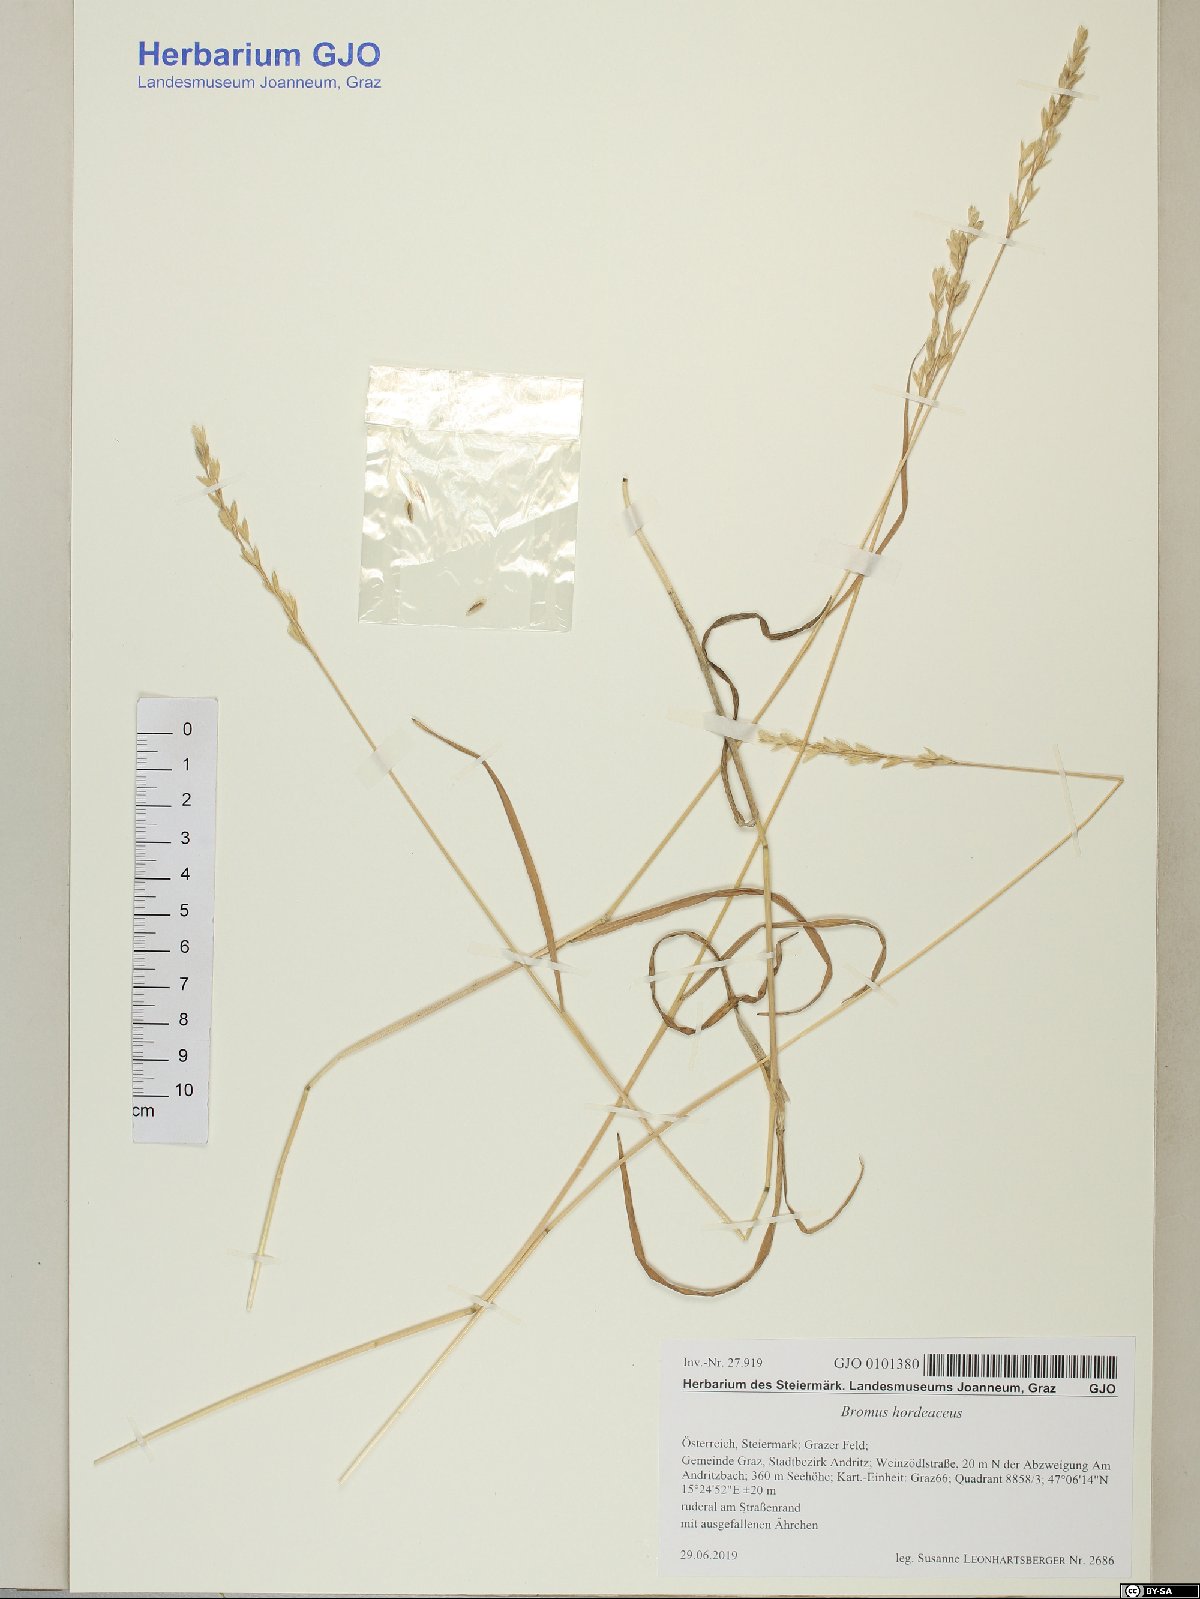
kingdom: Plantae
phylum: Tracheophyta
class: Liliopsida
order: Poales
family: Poaceae
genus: Bromus
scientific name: Bromus hordeaceus
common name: Soft brome
